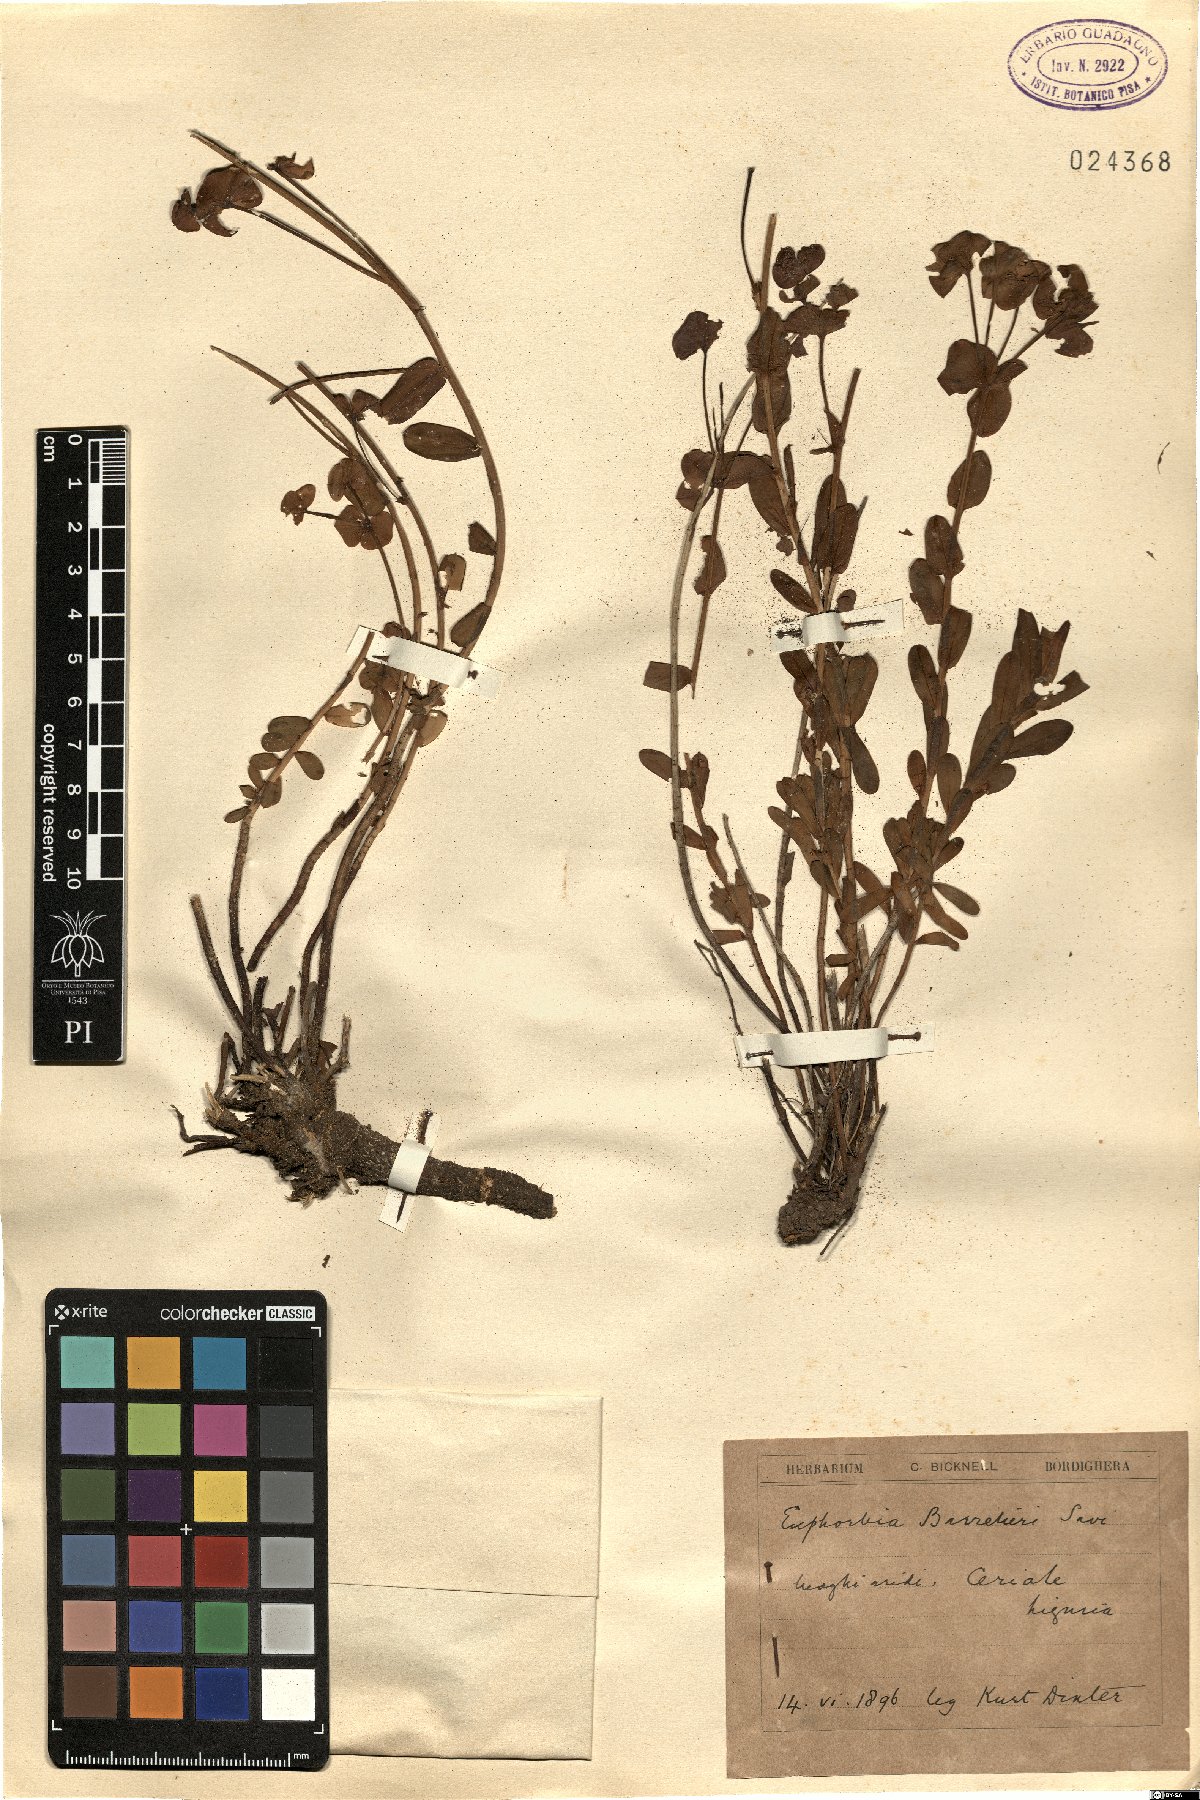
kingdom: Plantae
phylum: Tracheophyta
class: Magnoliopsida
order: Malpighiales
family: Euphorbiaceae
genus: Euphorbia
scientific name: Euphorbia barrelieri
